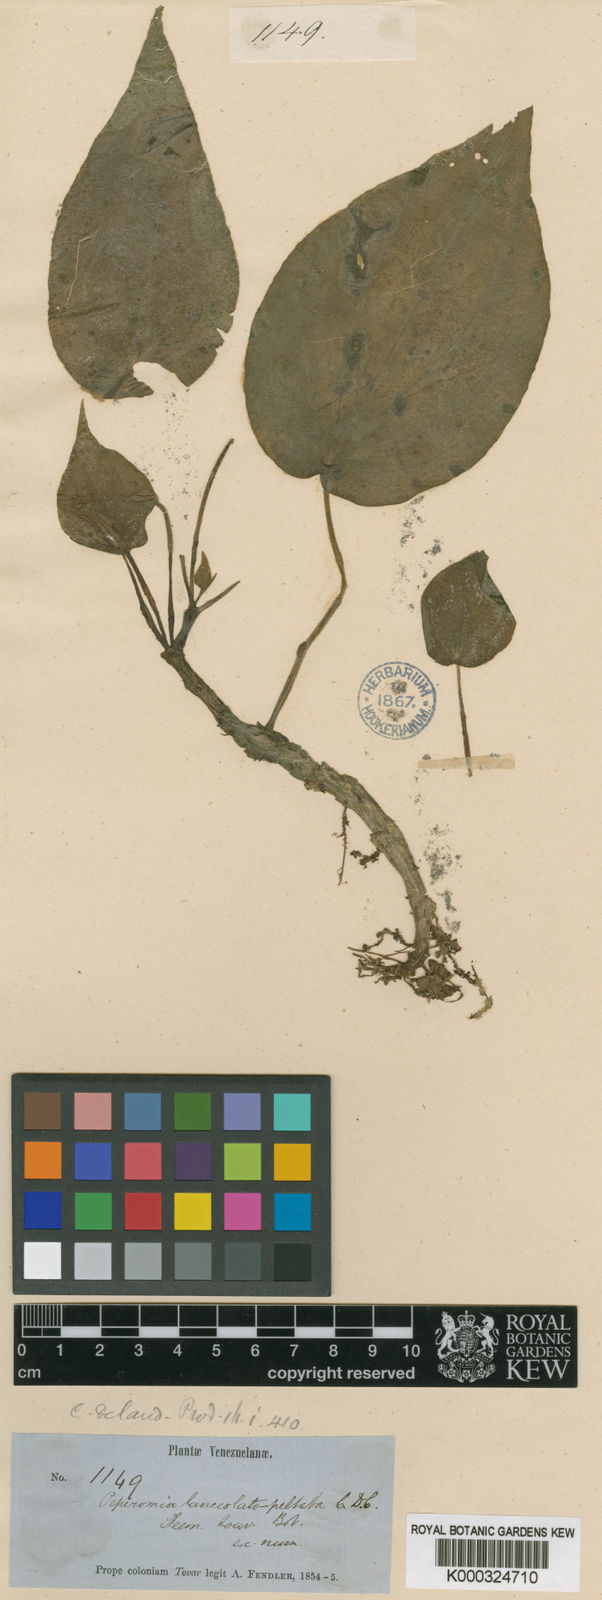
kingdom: Plantae
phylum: Tracheophyta
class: Magnoliopsida
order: Piperales
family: Piperaceae
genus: Peperomia
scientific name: Peperomia lanceolatopeltata
